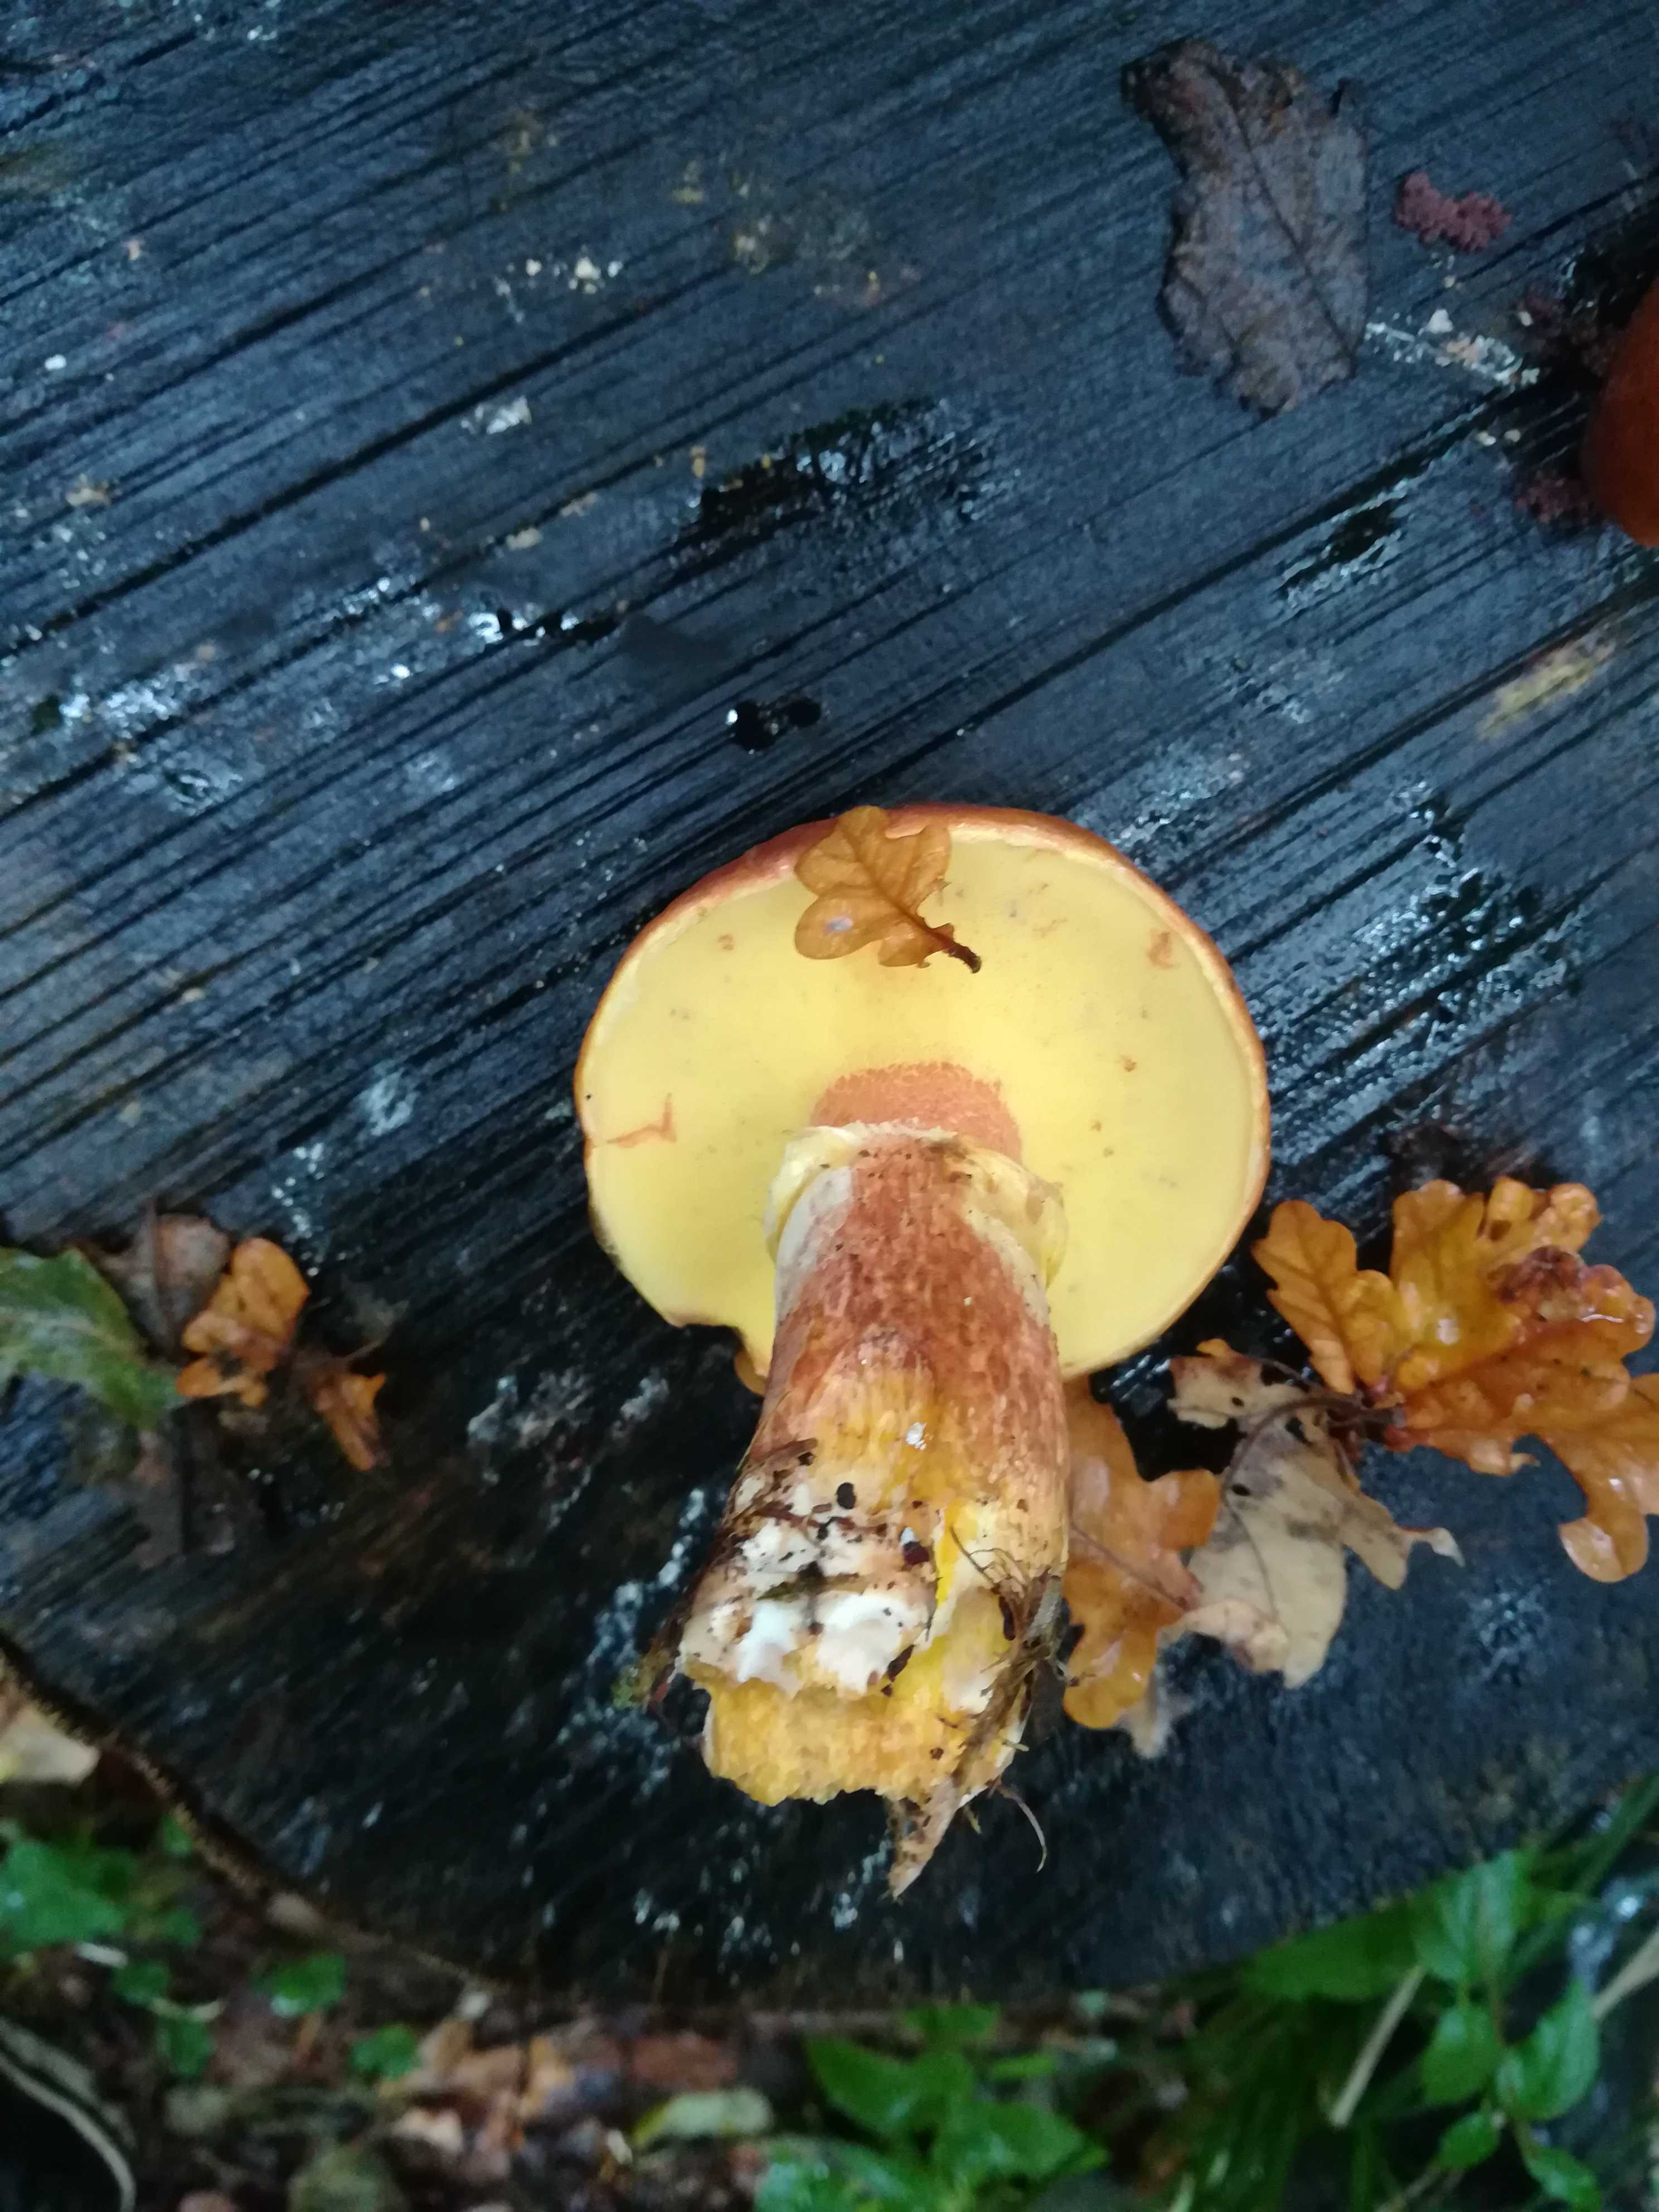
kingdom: Fungi
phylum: Basidiomycota
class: Agaricomycetes
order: Boletales
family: Suillaceae
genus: Suillus
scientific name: Suillus grevillei
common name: lærke-slimrørhat
